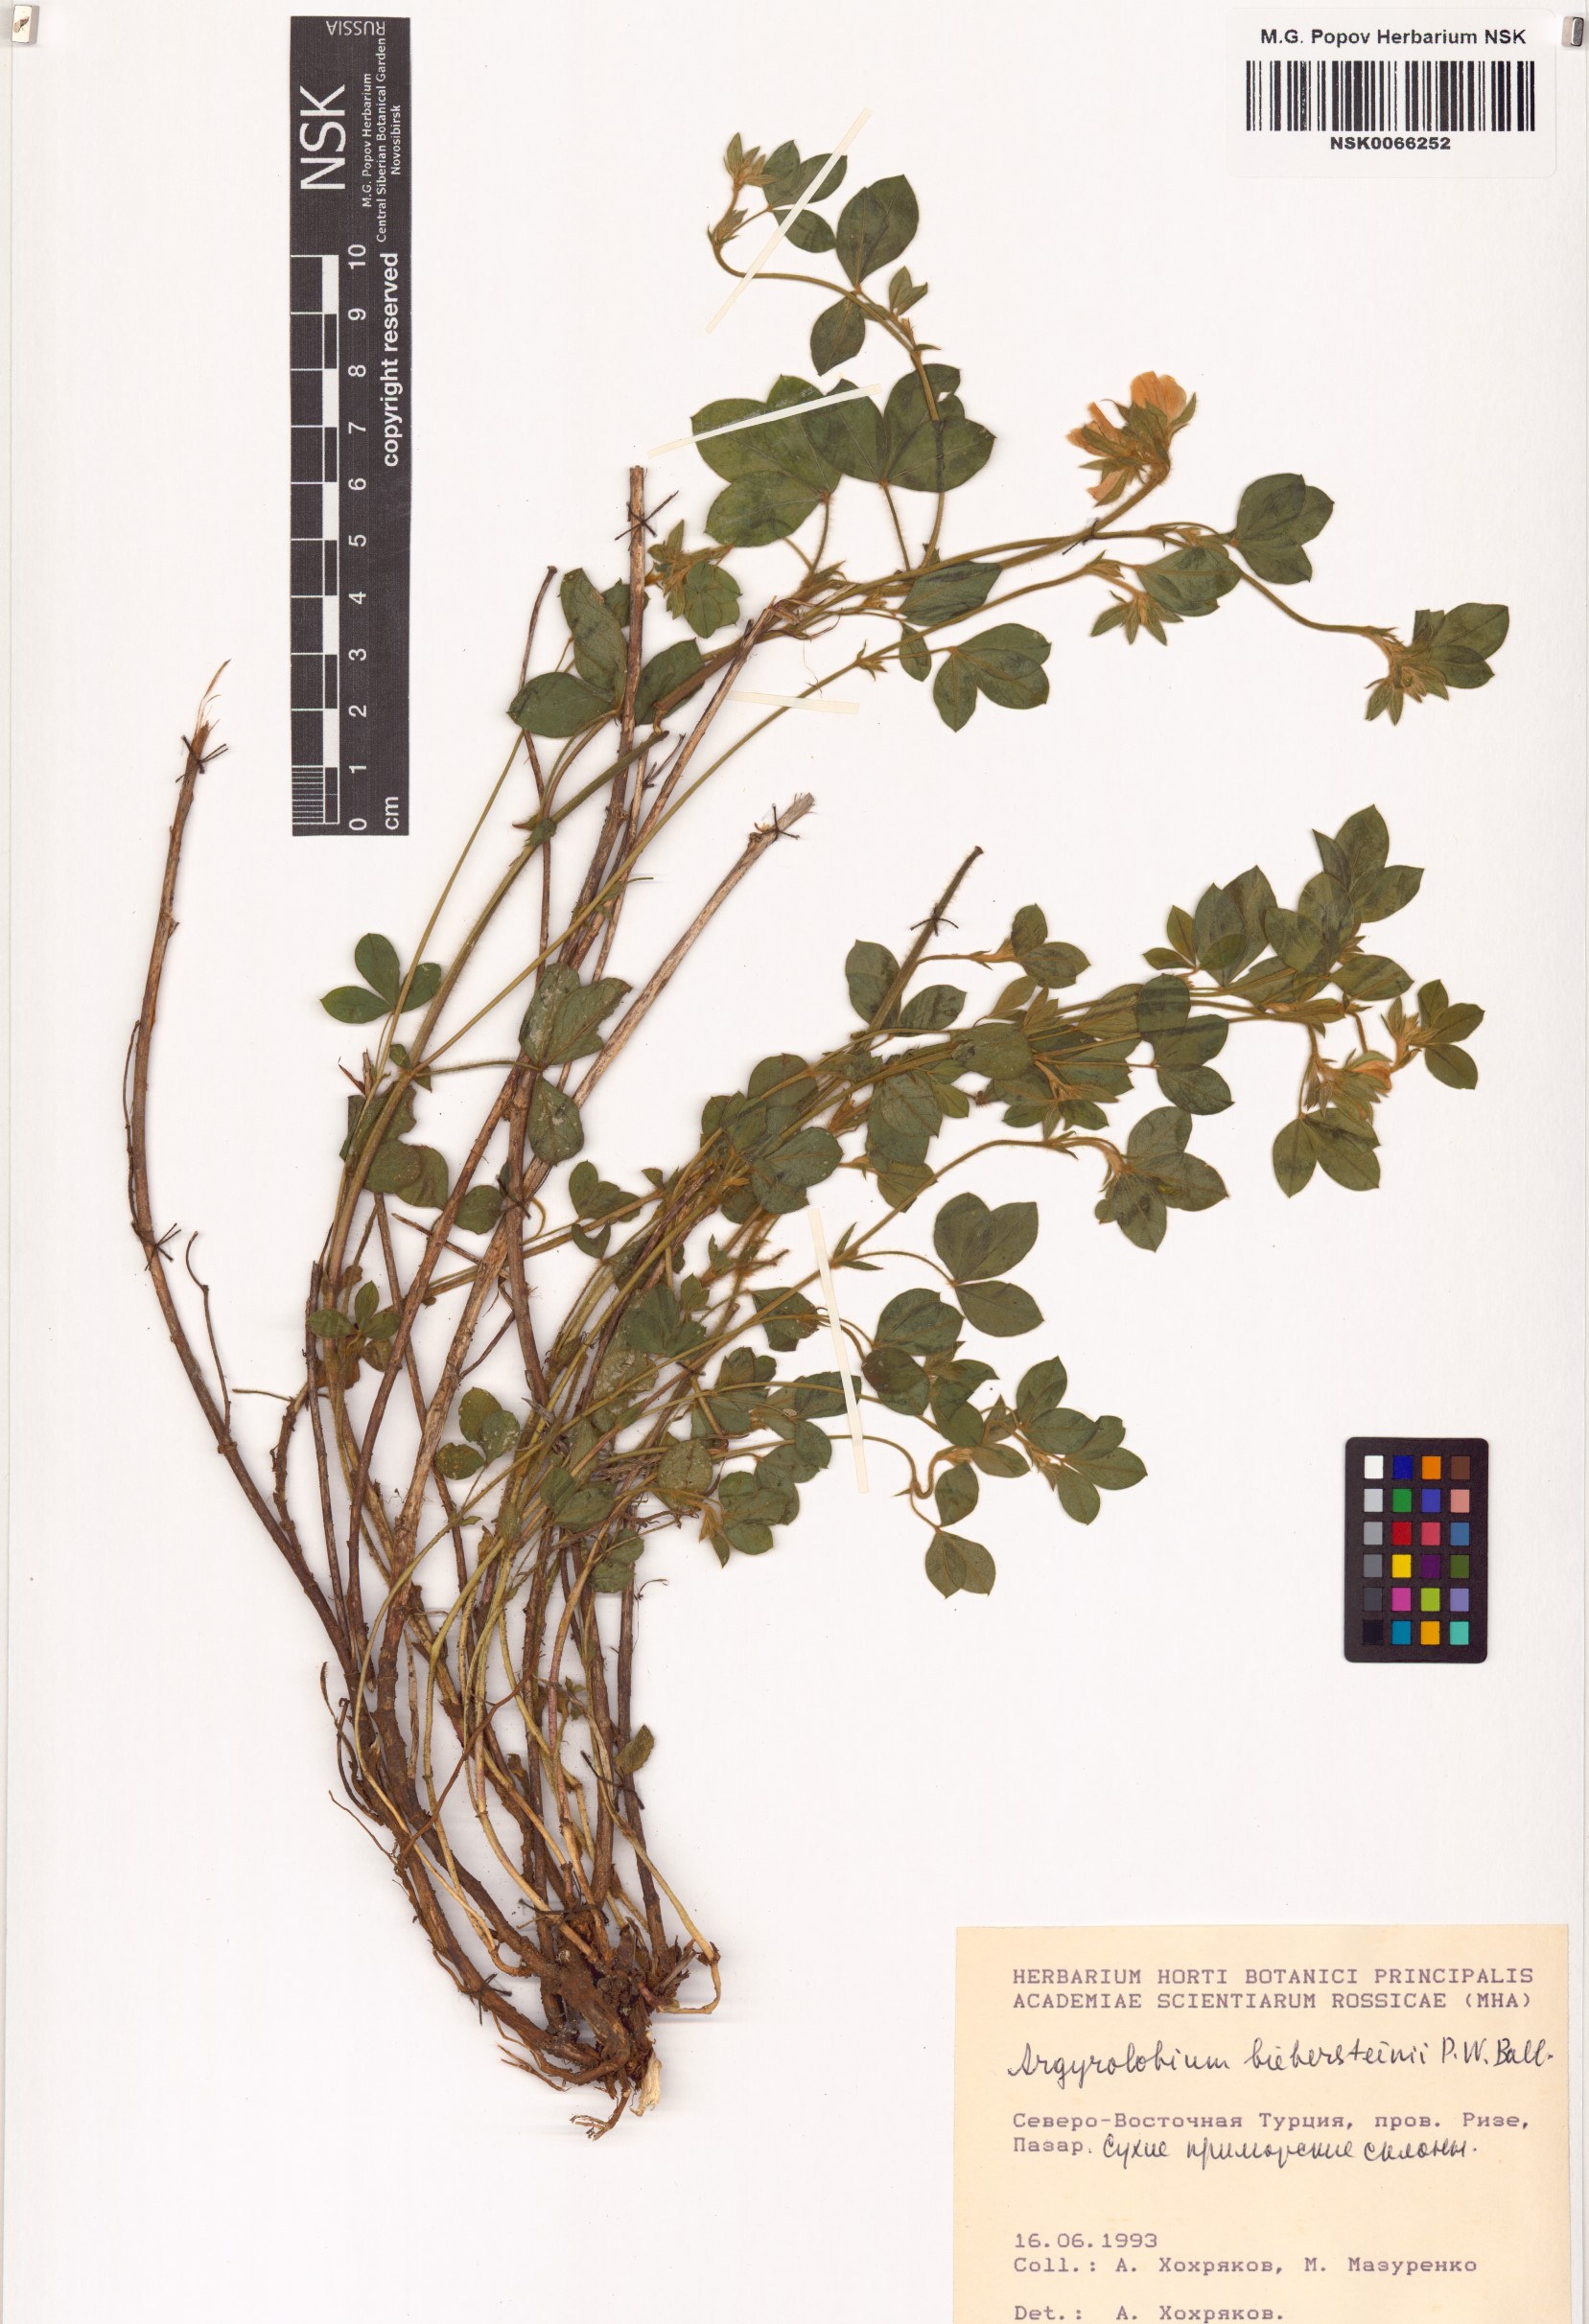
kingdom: Plantae
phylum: Tracheophyta
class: Magnoliopsida
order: Fabales
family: Fabaceae
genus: Argyrolobium
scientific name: Argyrolobium biebersteinii
